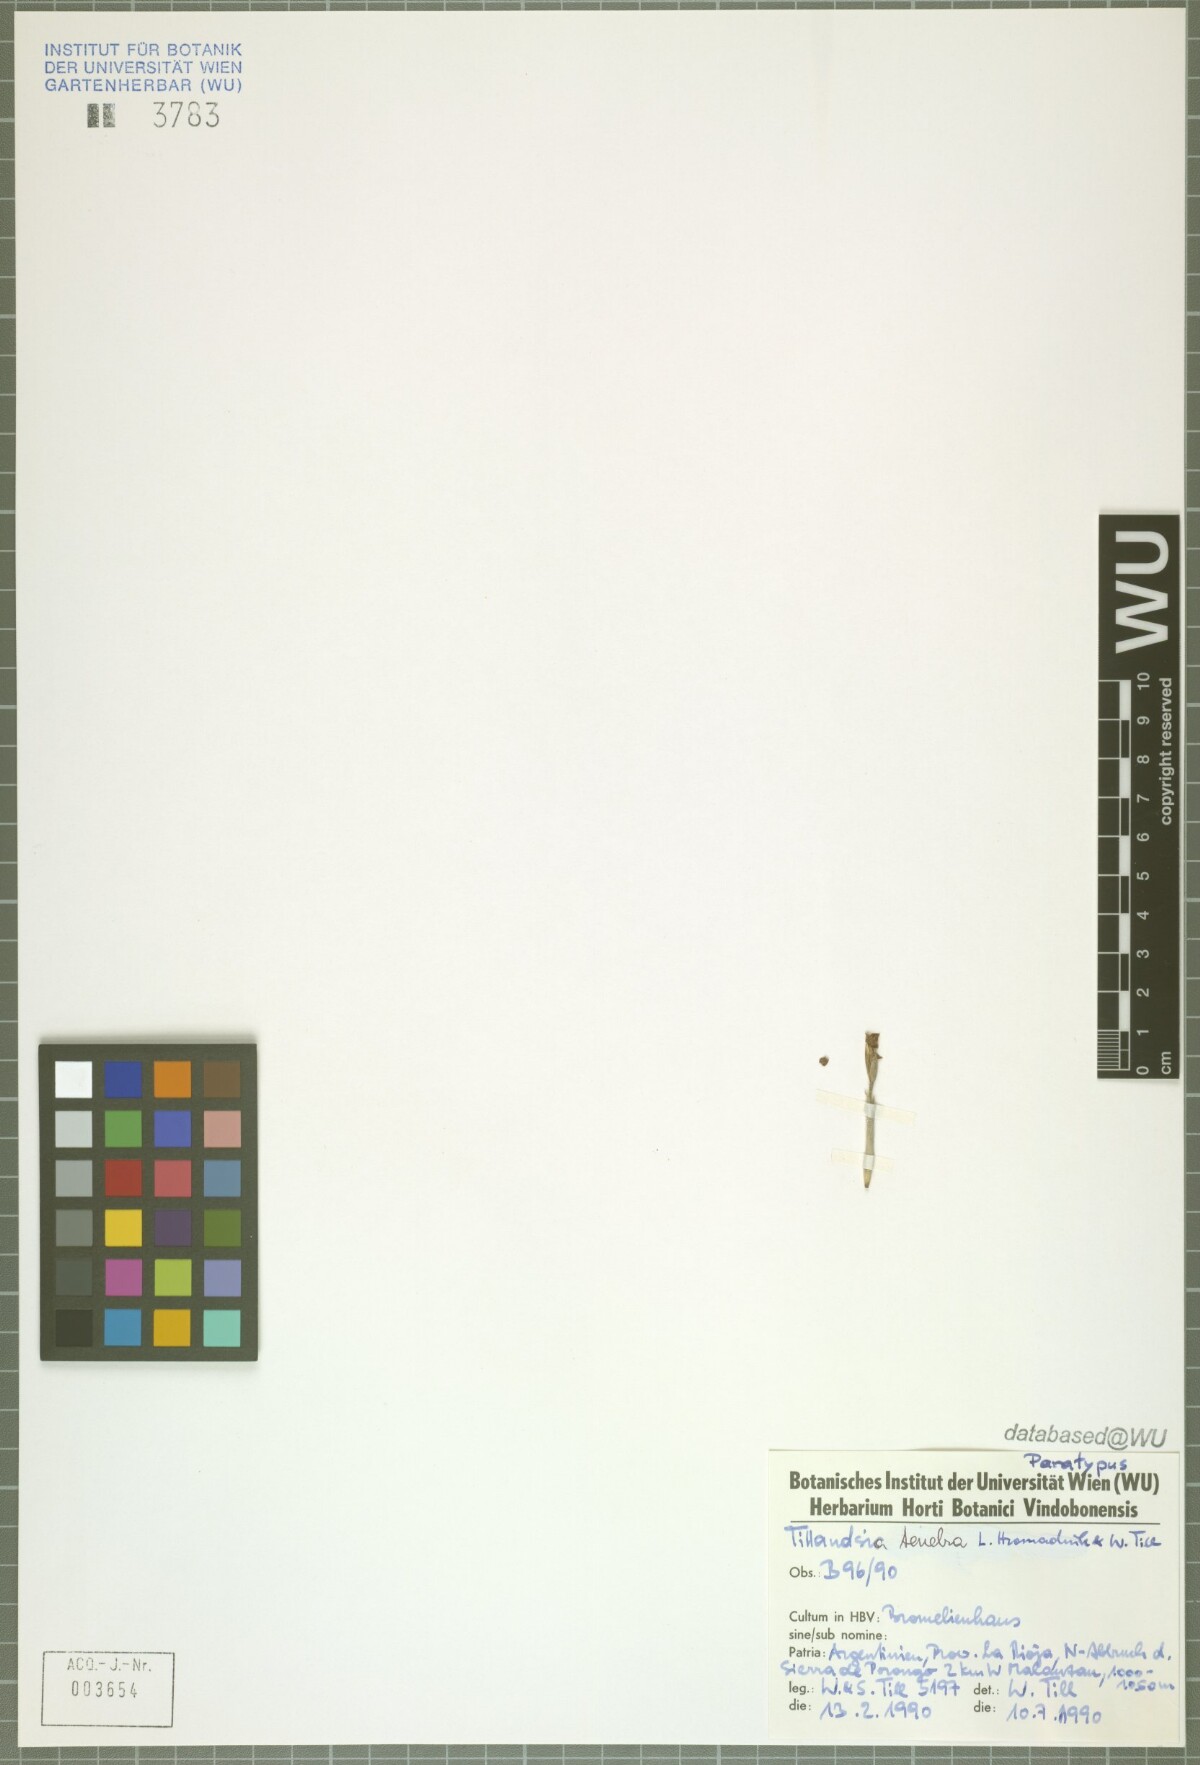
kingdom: Plantae
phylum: Tracheophyta
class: Liliopsida
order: Poales
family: Bromeliaceae
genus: Tillandsia
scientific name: Tillandsia tenebra
